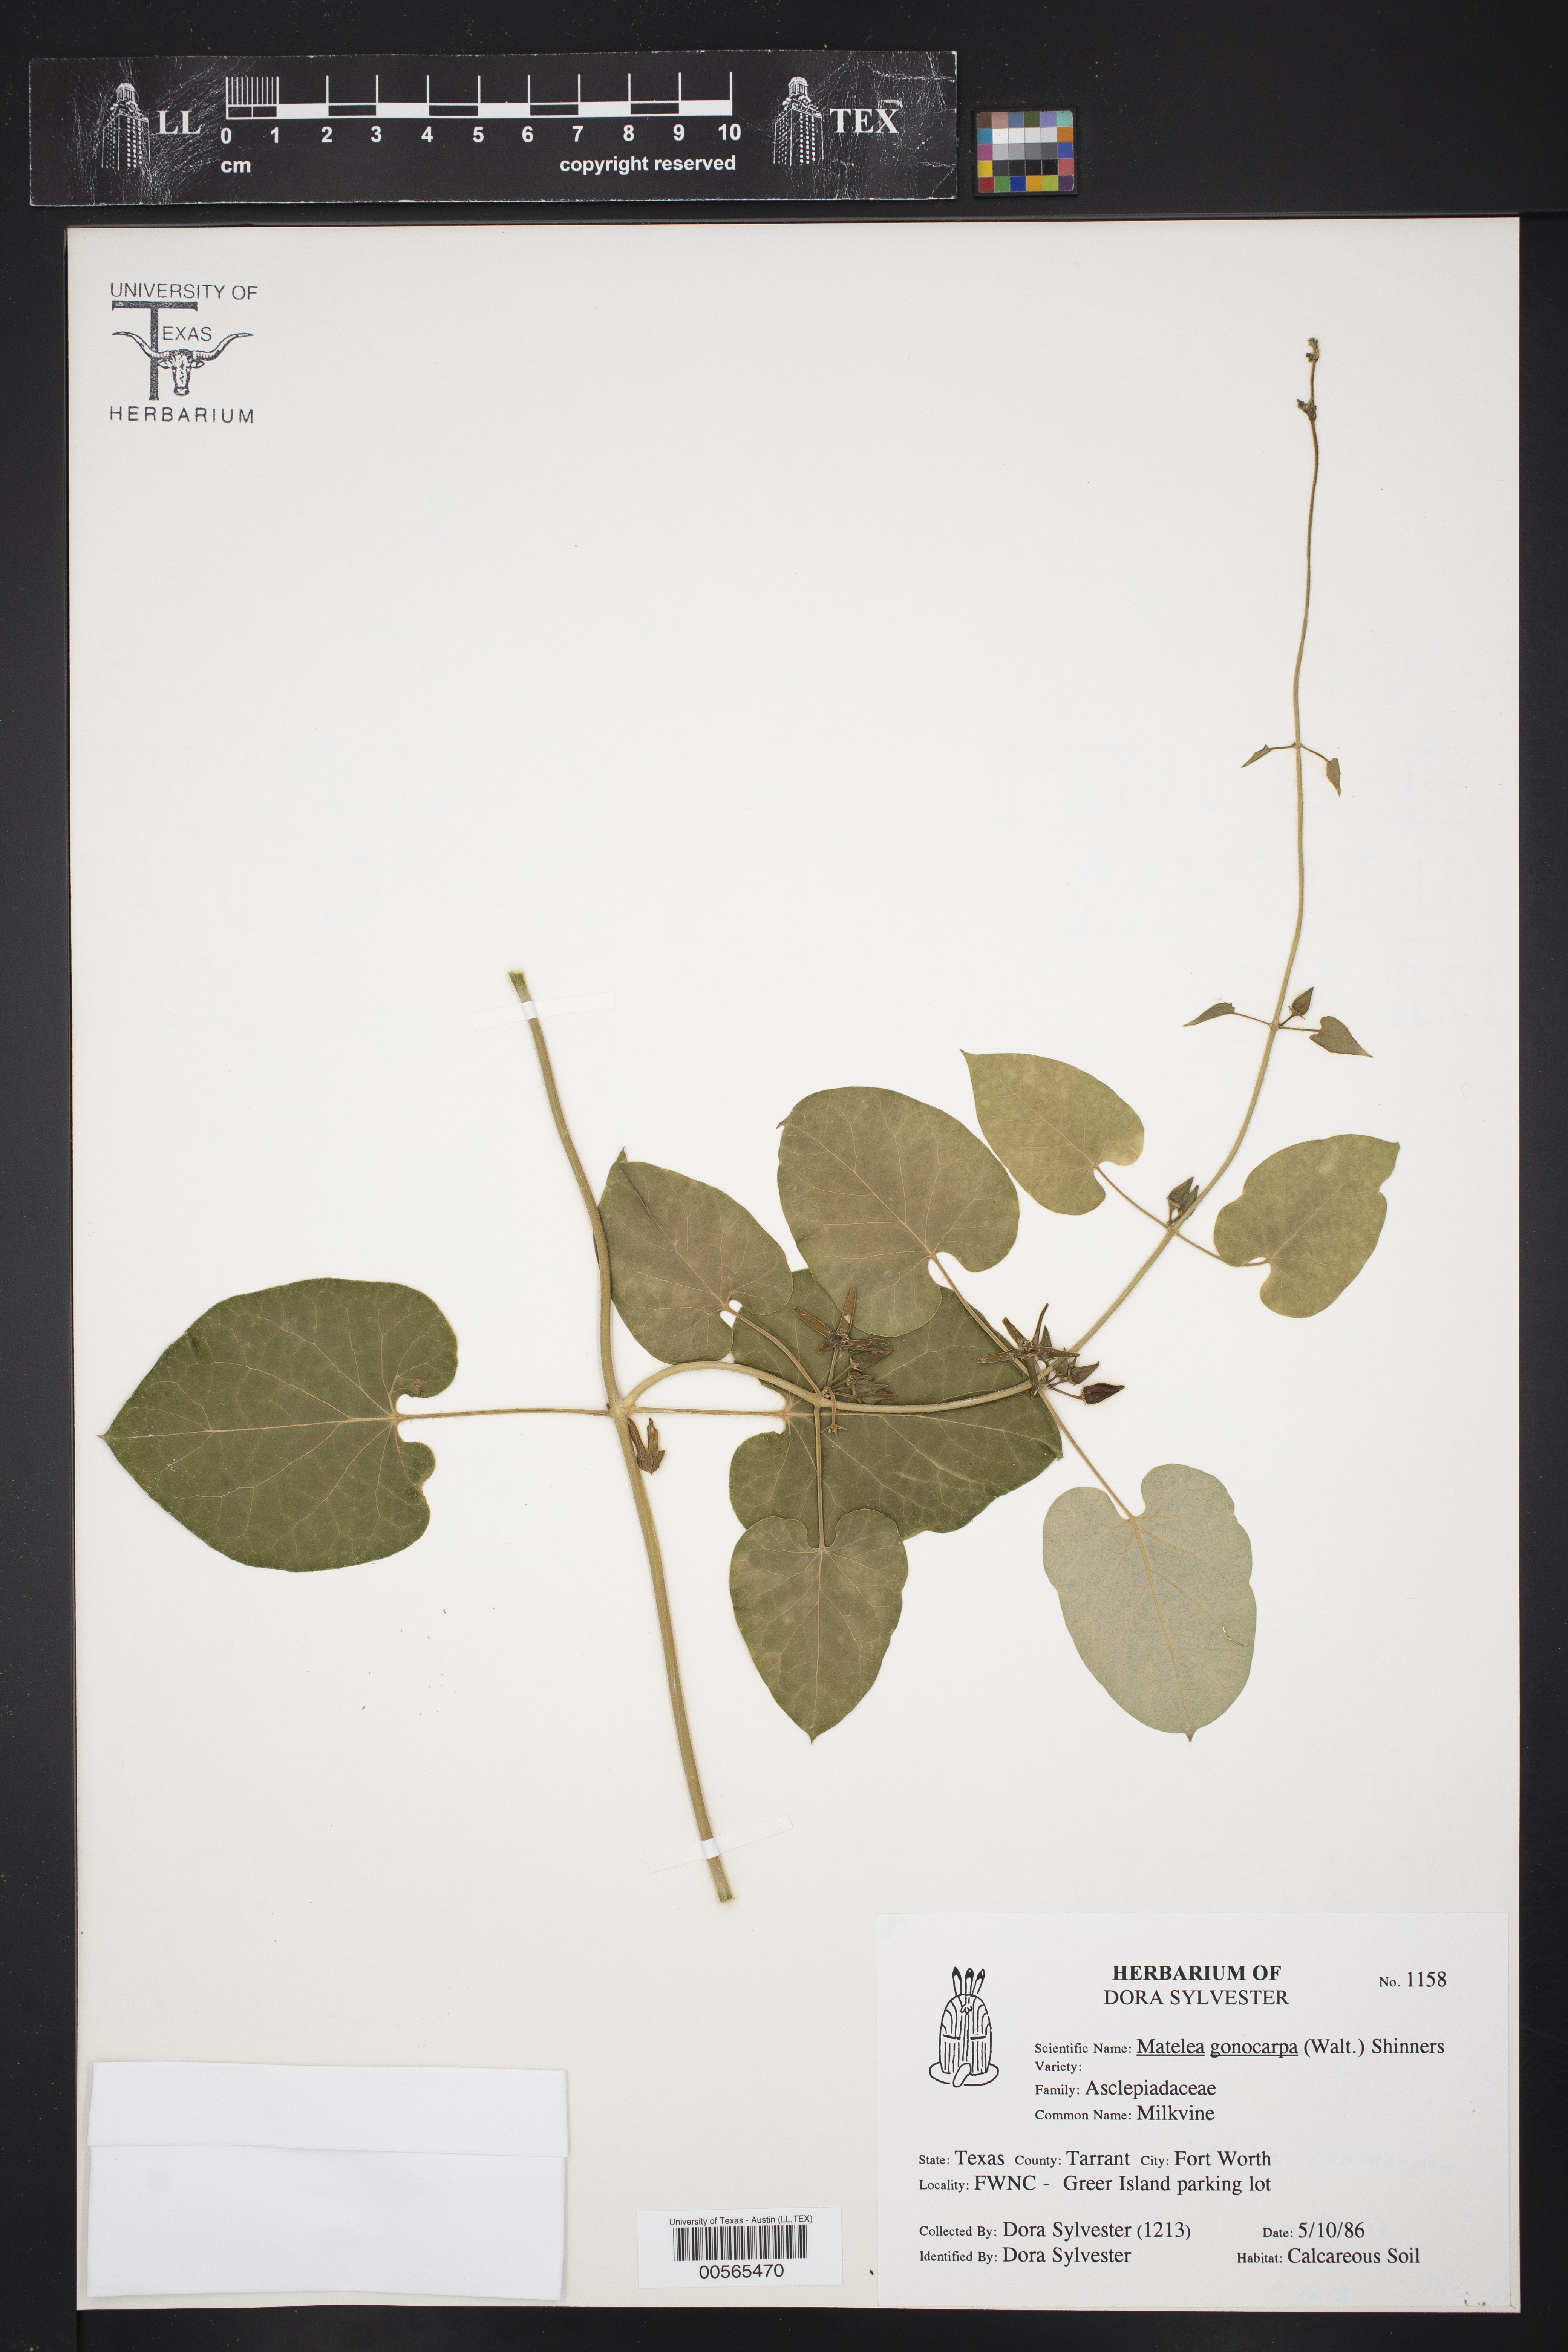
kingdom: Plantae
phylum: Tracheophyta
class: Magnoliopsida
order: Gentianales
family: Apocynaceae
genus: Gonolobus
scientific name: Gonolobus gonocarpus
